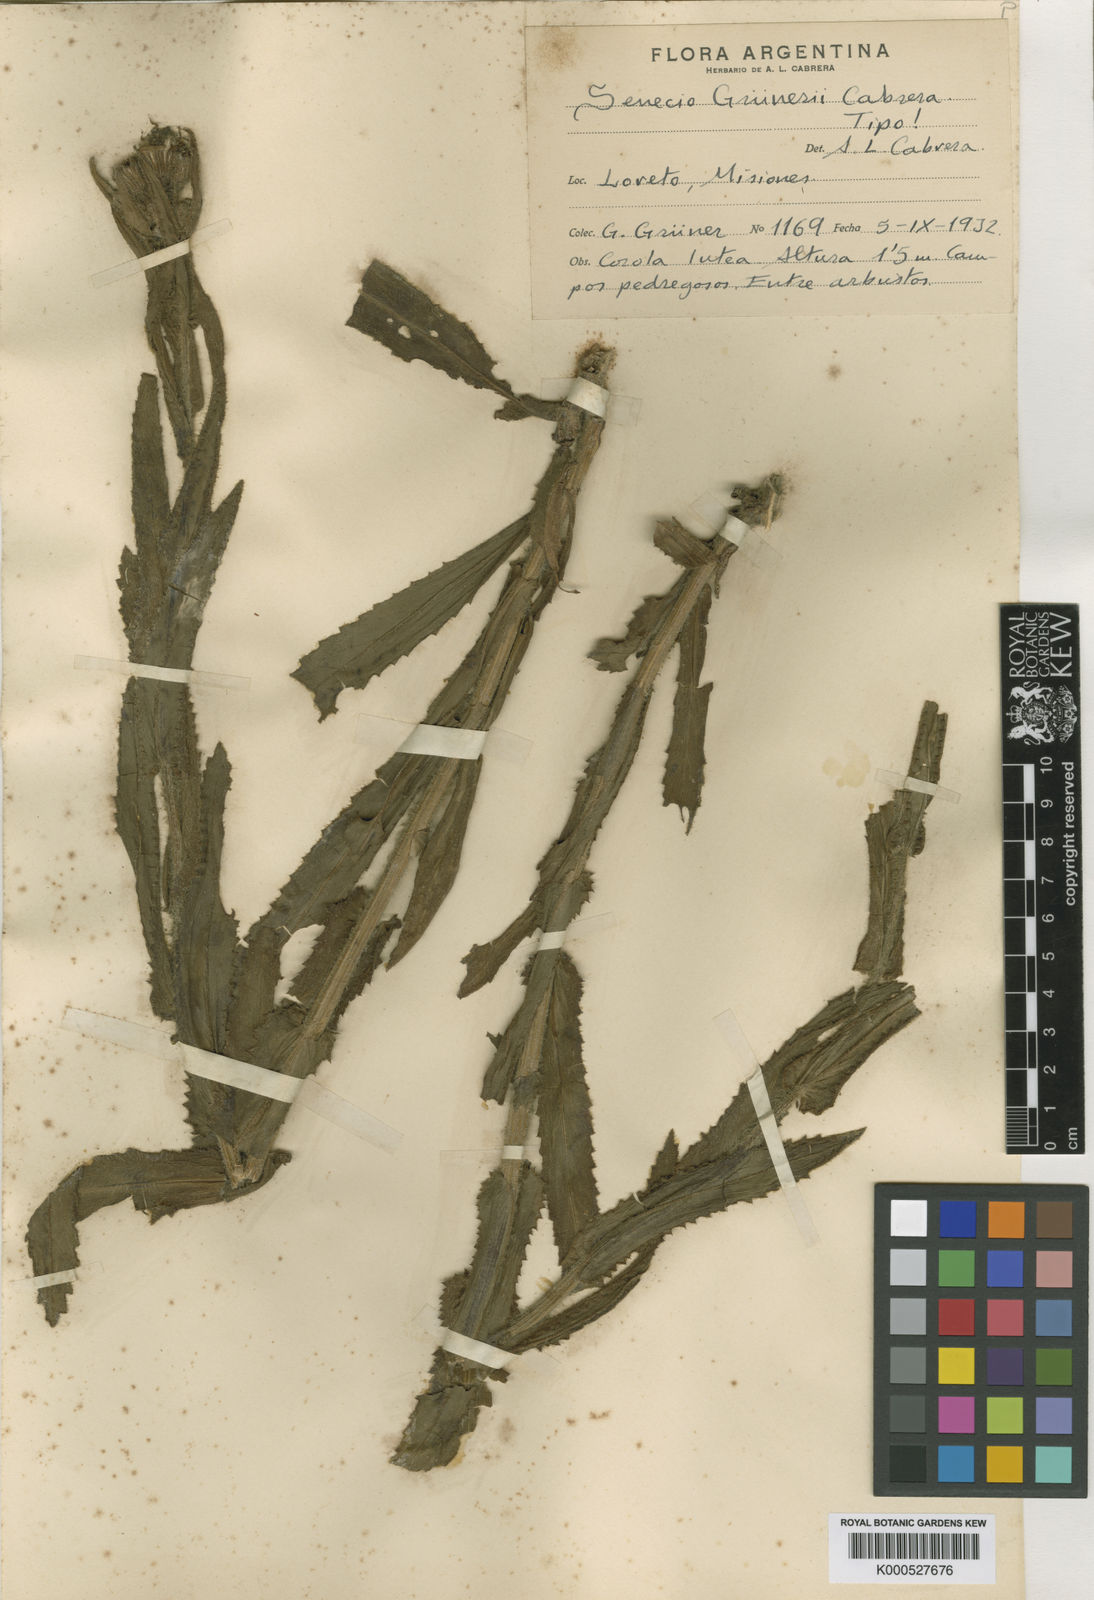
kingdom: Plantae
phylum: Tracheophyta
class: Magnoliopsida
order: Asterales
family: Asteraceae
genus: Senecio
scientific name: Senecio
